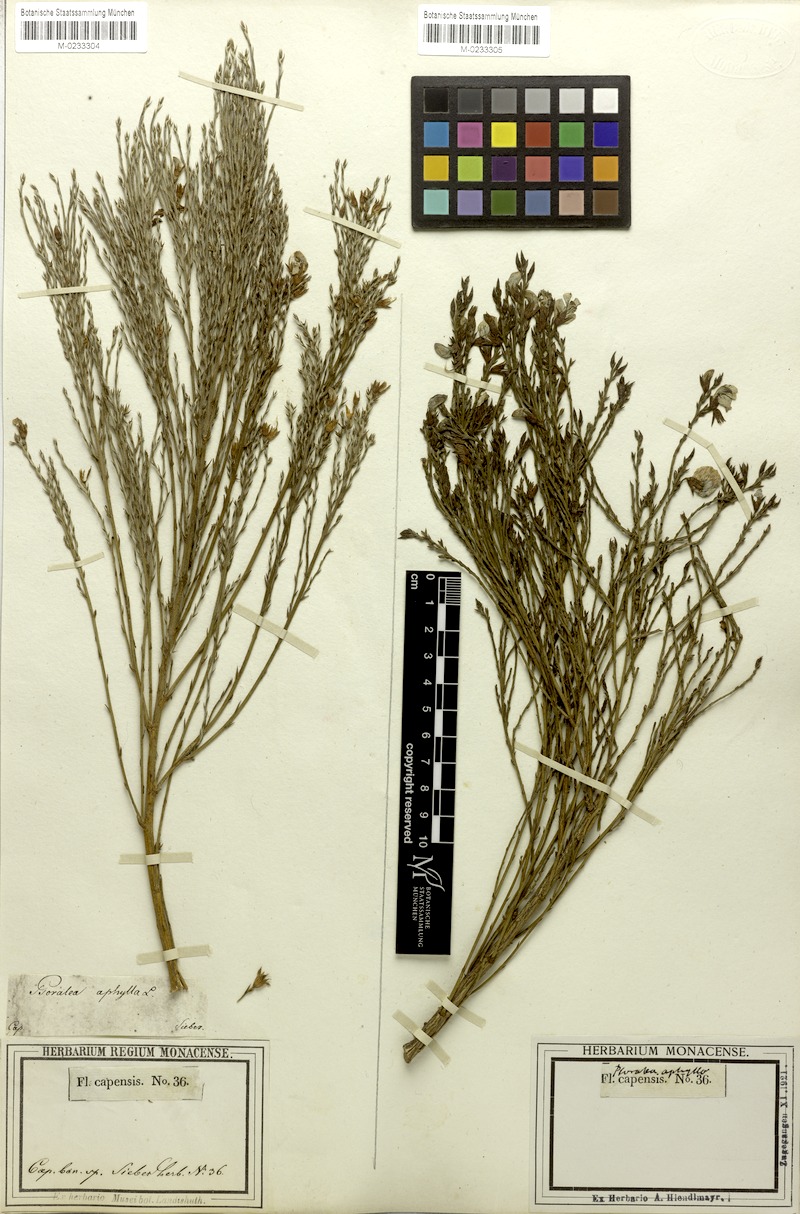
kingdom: Plantae
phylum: Tracheophyta
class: Magnoliopsida
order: Fabales
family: Fabaceae
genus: Psoralea
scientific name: Psoralea aphylla
